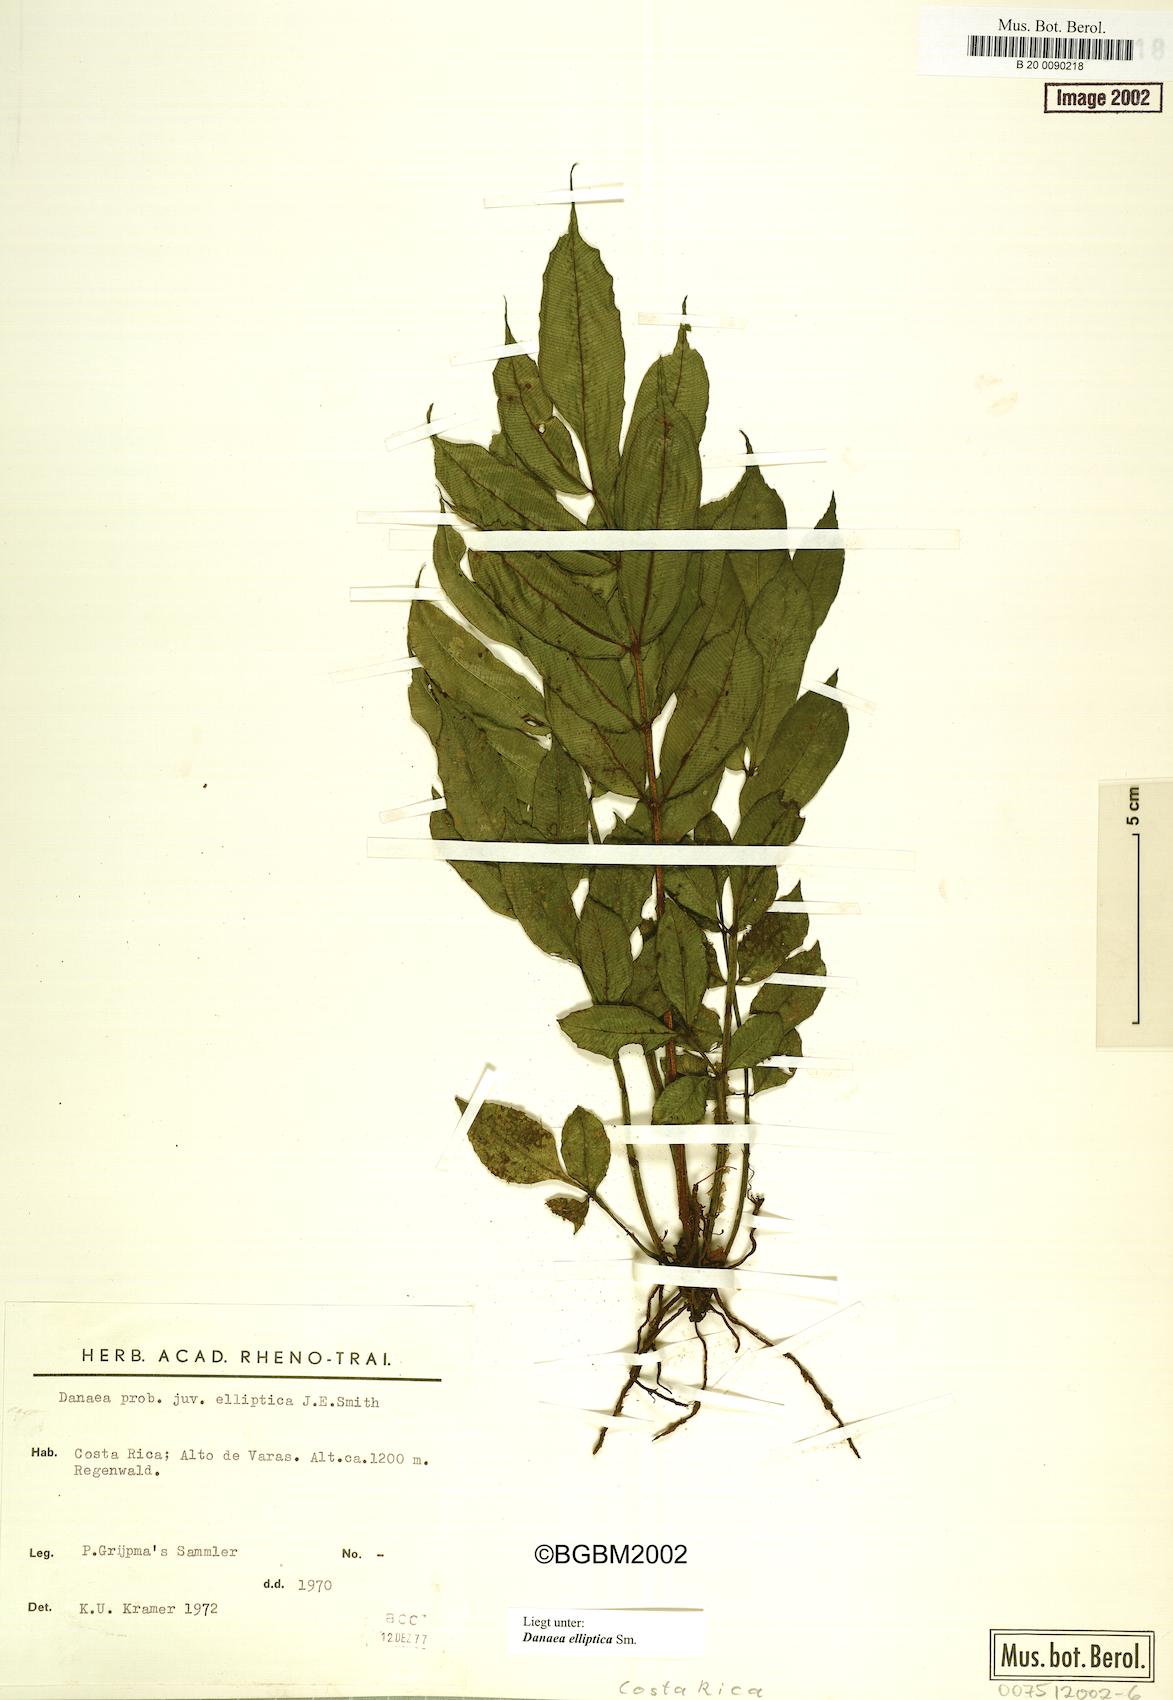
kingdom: Plantae
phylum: Tracheophyta
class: Polypodiopsida
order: Marattiales
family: Marattiaceae
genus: Danaea
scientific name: Danaea nodosa
